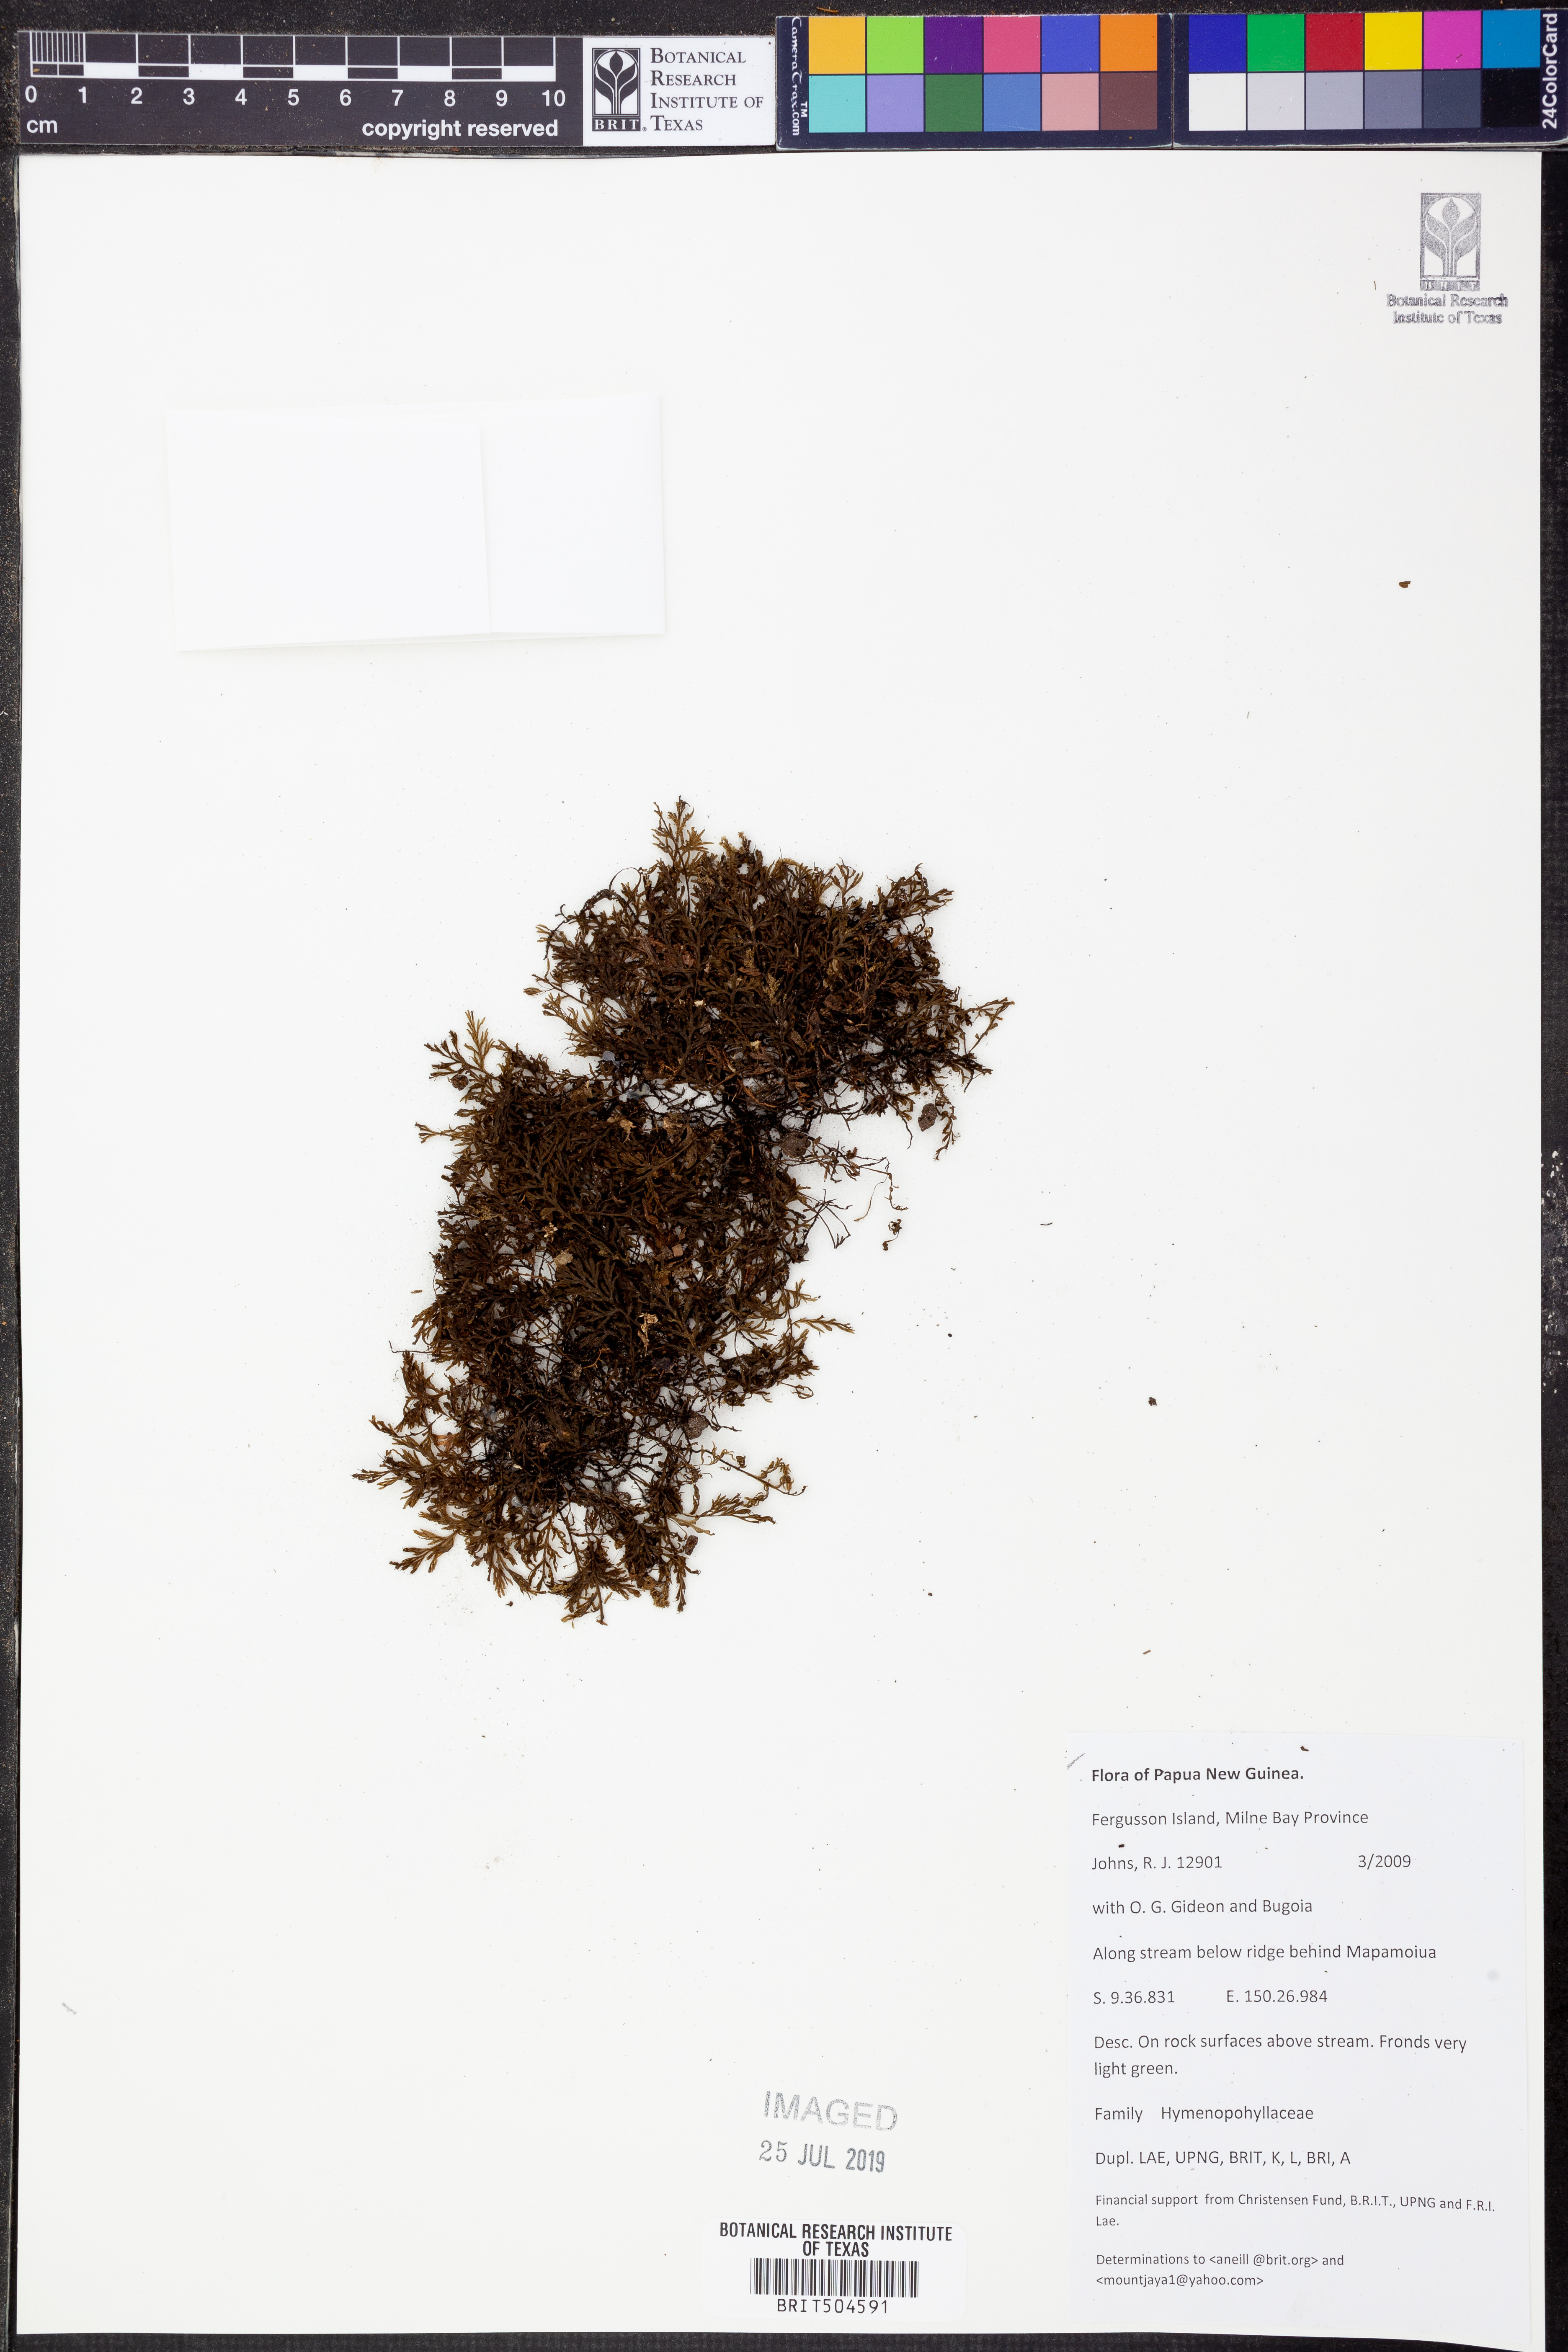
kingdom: Plantae
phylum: Tracheophyta
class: Polypodiopsida
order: Hymenophyllales
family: Hymenophyllaceae
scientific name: Hymenophyllaceae
